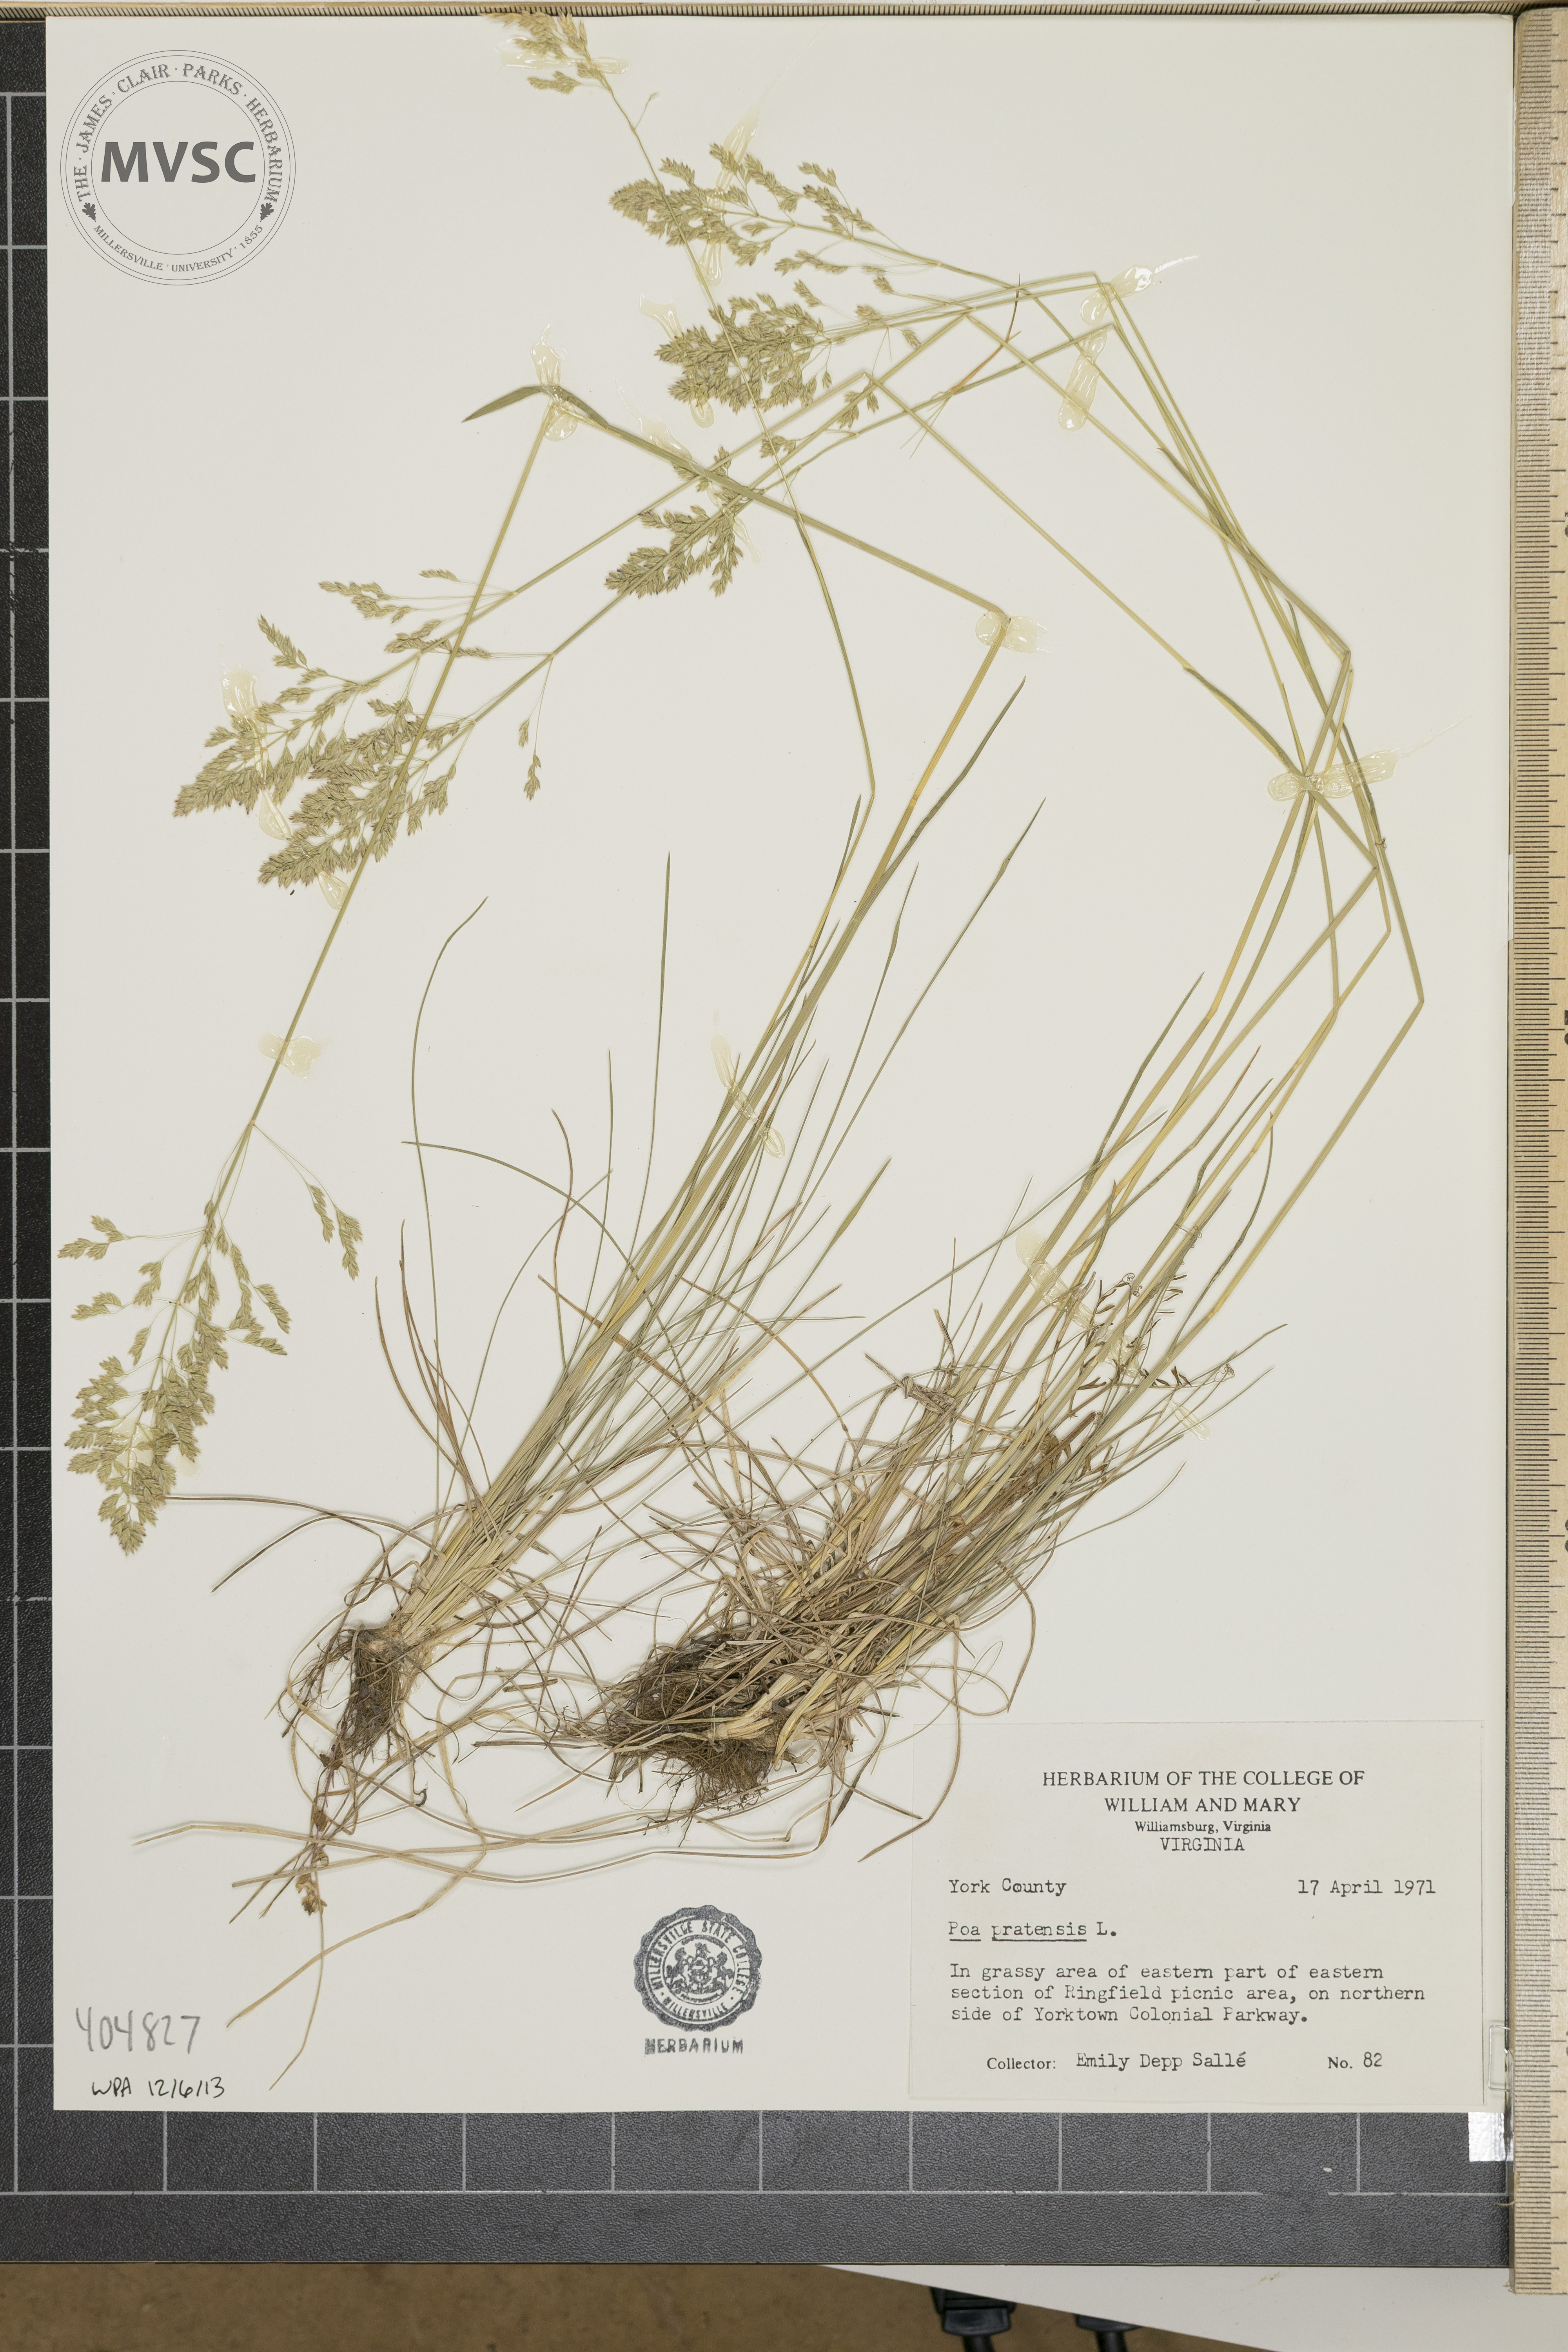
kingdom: Plantae
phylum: Tracheophyta
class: Liliopsida
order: Poales
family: Poaceae
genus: Poa
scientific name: Poa pratensis
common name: Kentucky bluegrass
